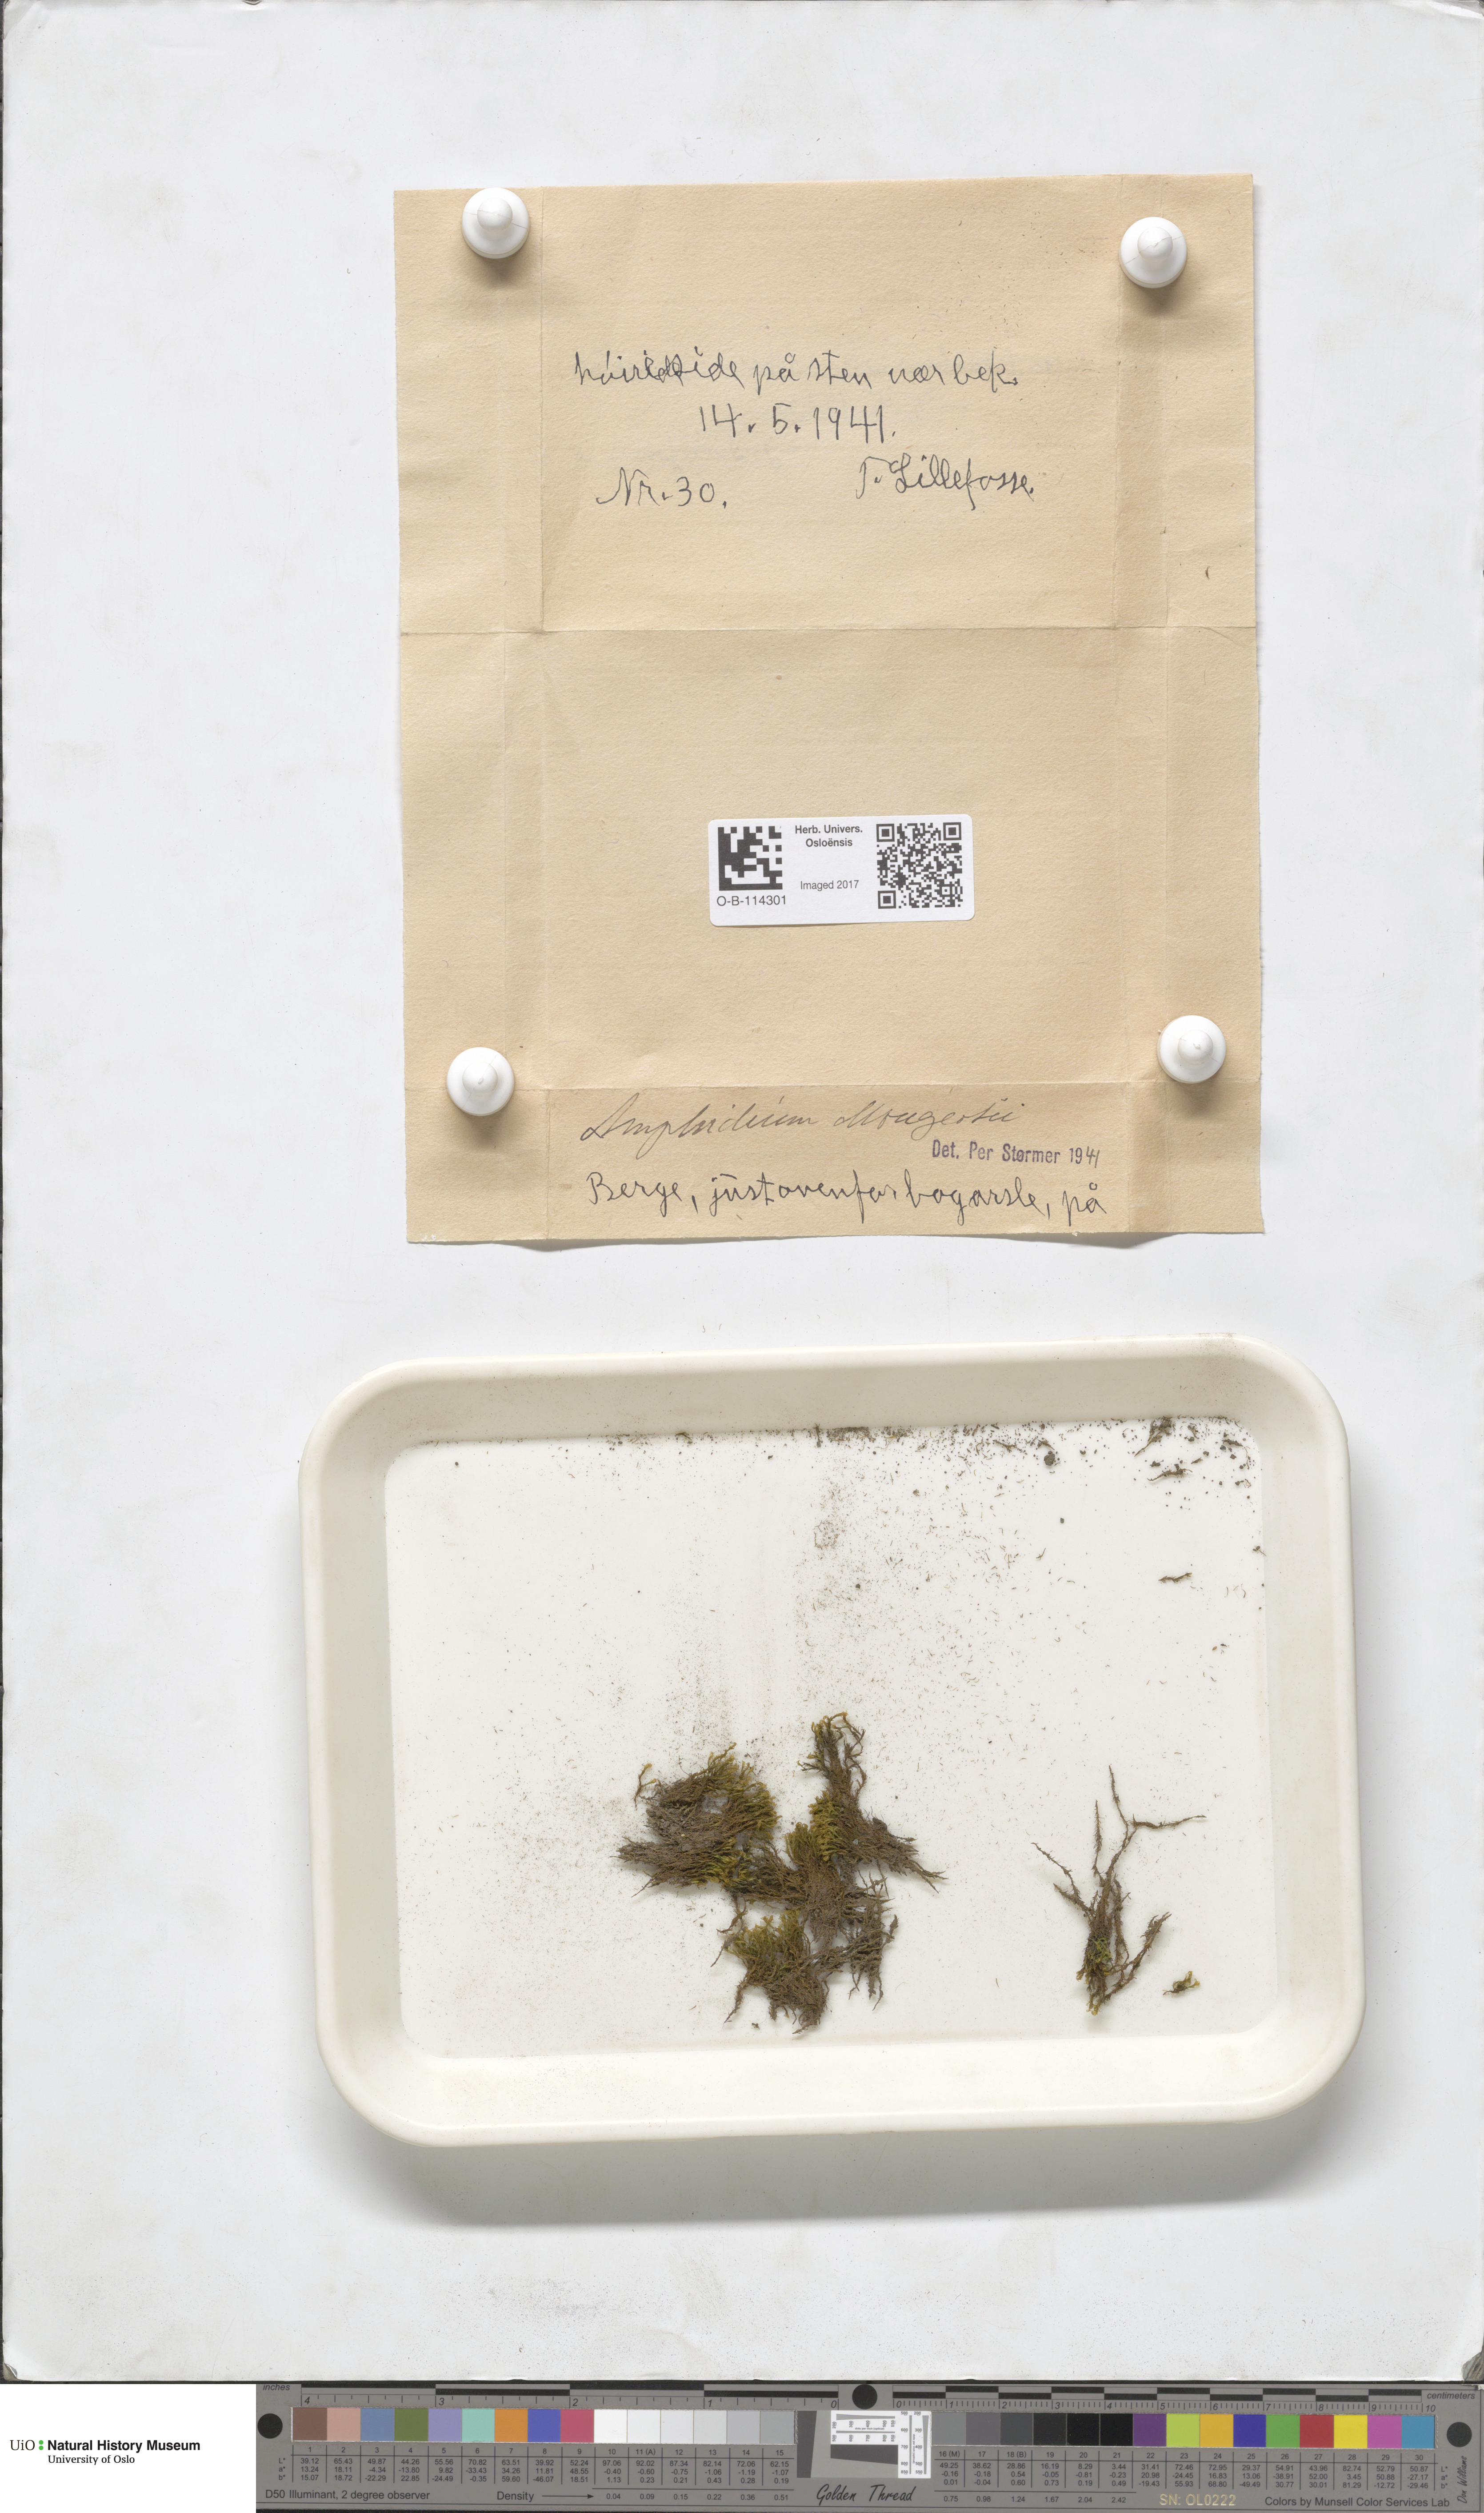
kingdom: Plantae
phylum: Bryophyta
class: Bryopsida
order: Dicranales
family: Amphidiaceae
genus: Amphidium
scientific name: Amphidium mougeotii
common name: Mougeot's yoke moss
